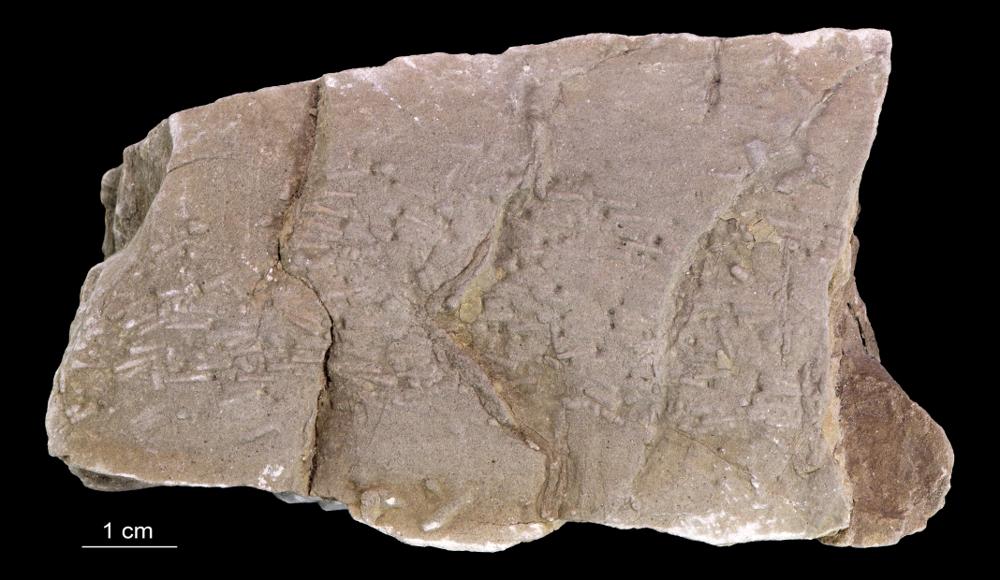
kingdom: Animalia
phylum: Annelida
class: Polychaeta
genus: Volborthella
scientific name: Volborthella tenuis
